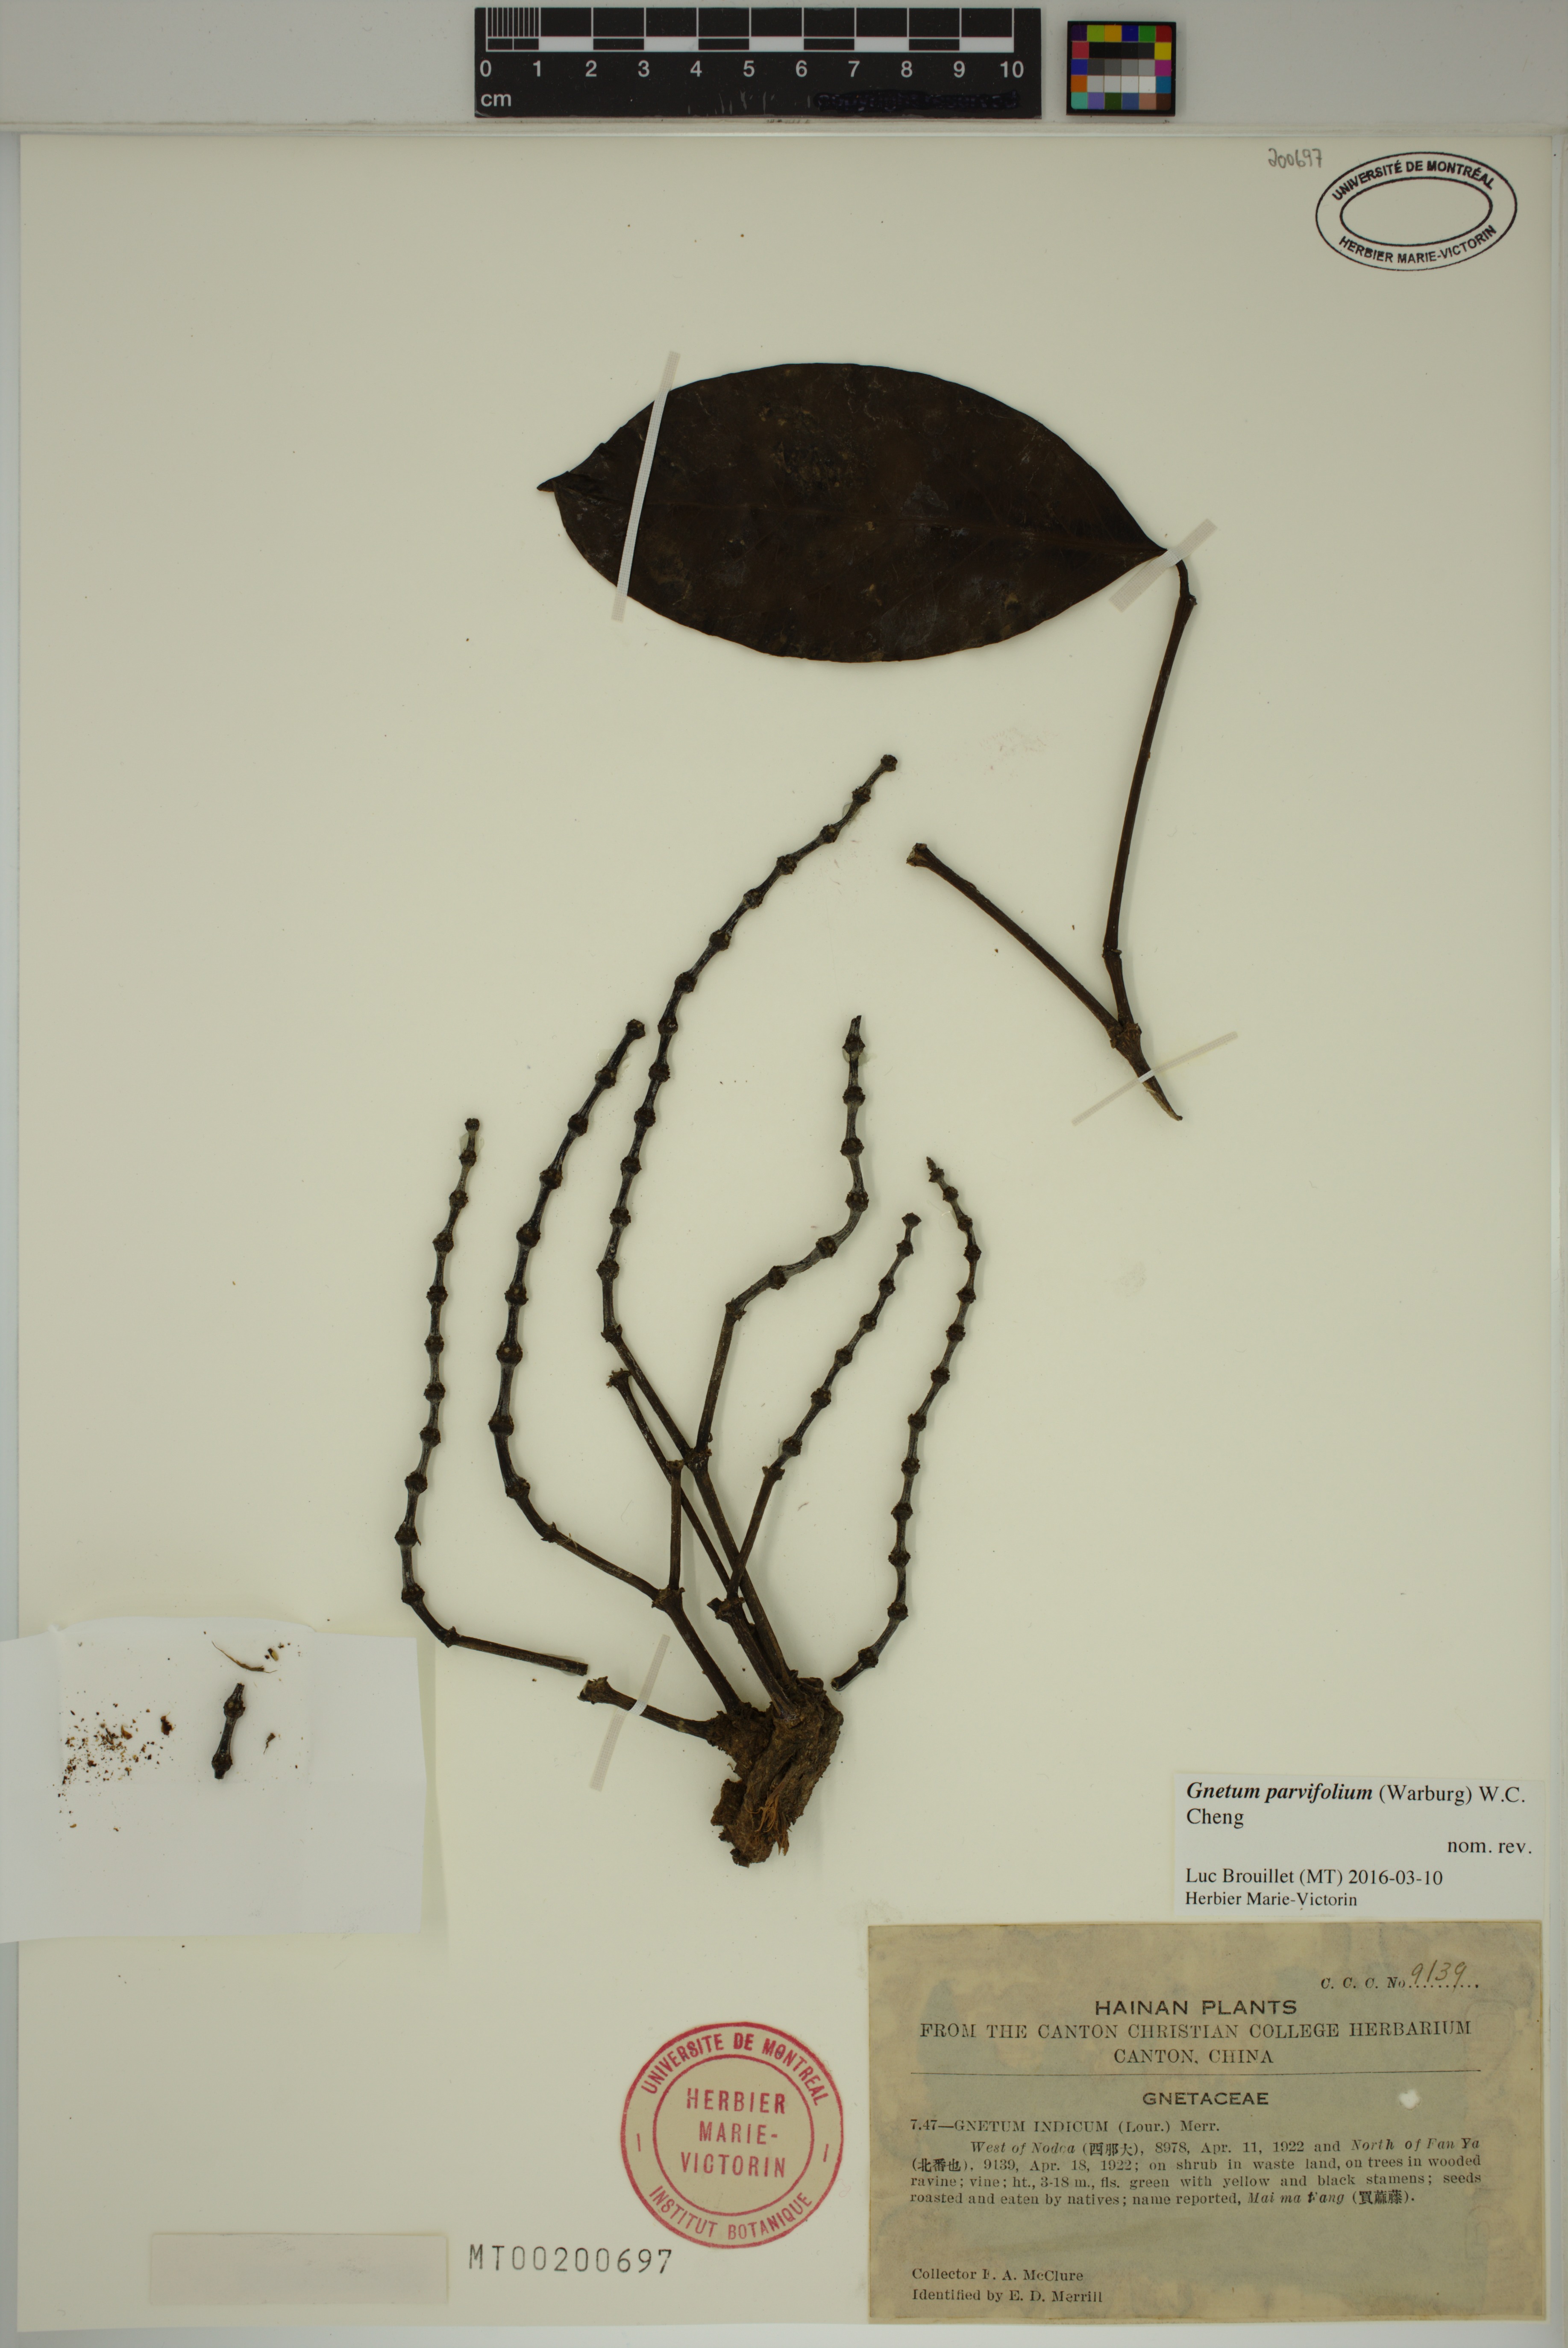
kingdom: Plantae
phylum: Tracheophyta
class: Gnetopsida
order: Gnetales
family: Gnetaceae
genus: Gnetum
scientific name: Gnetum parvifolium
